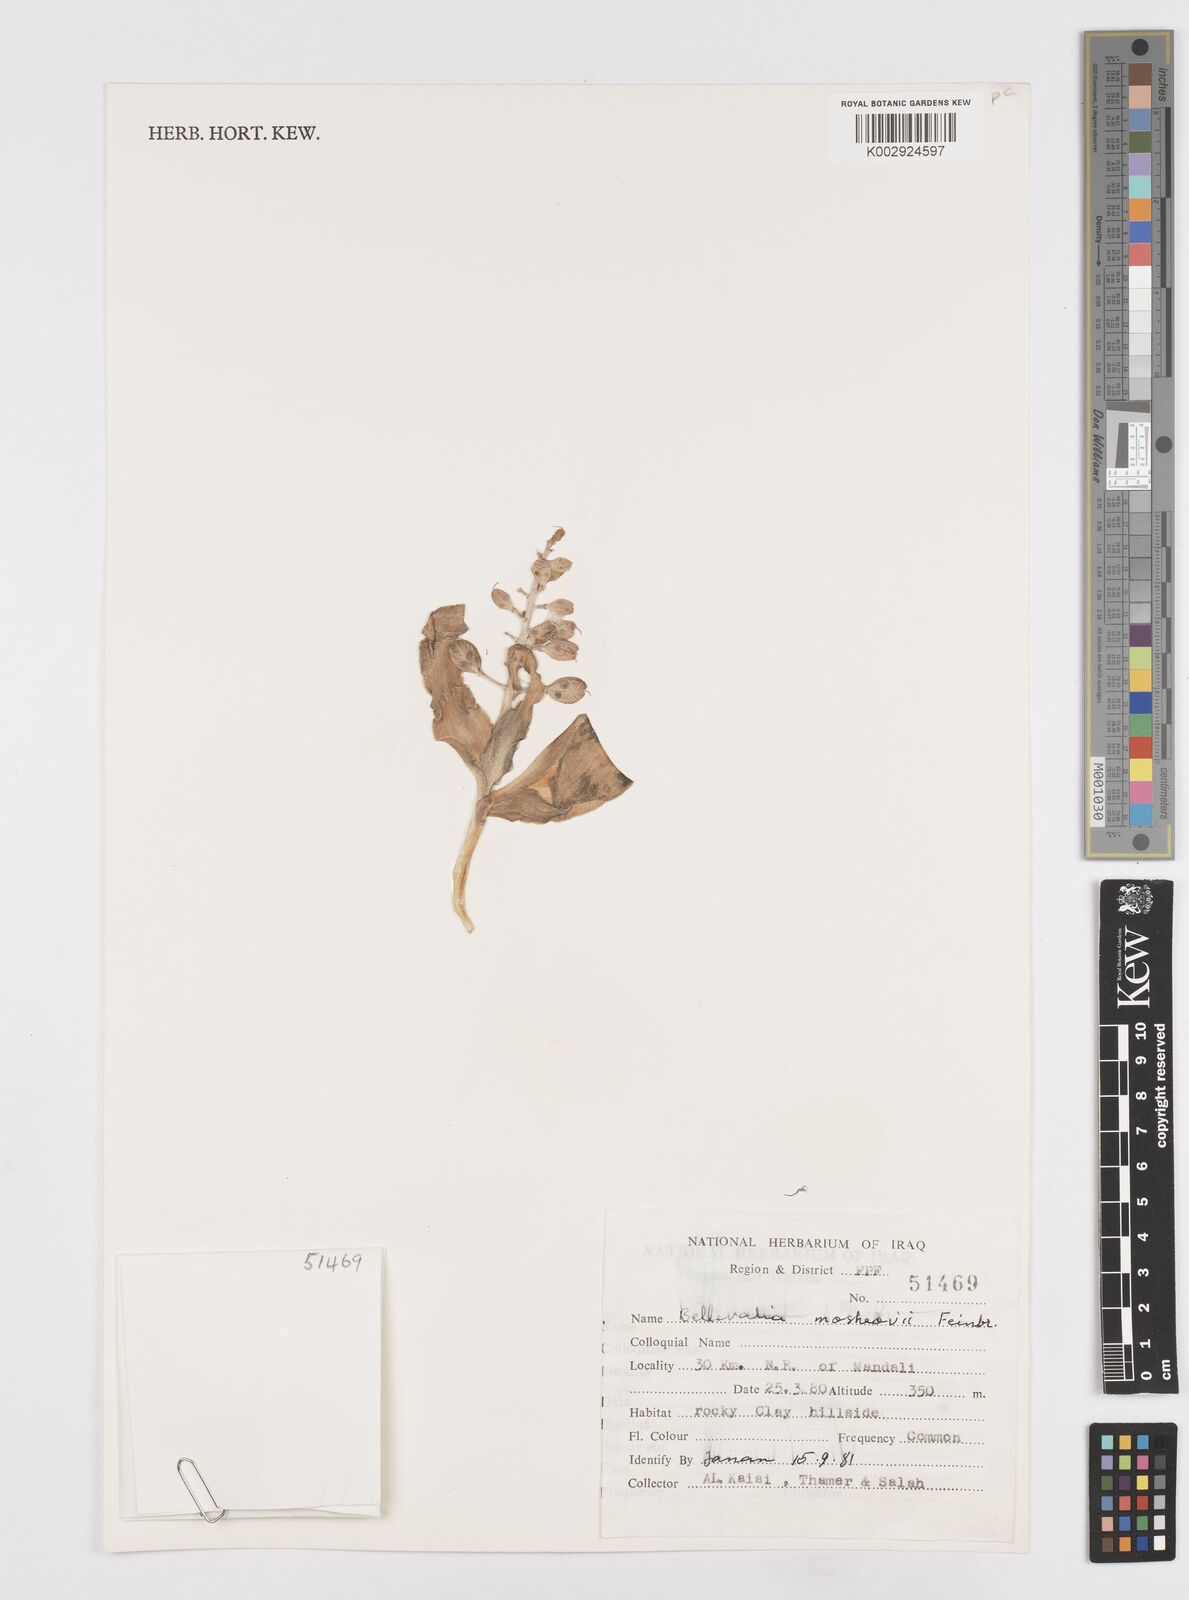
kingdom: Plantae
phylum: Tracheophyta
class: Liliopsida
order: Asparagales
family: Asparagaceae
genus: Bellevalia
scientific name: Bellevalia mosheovii
